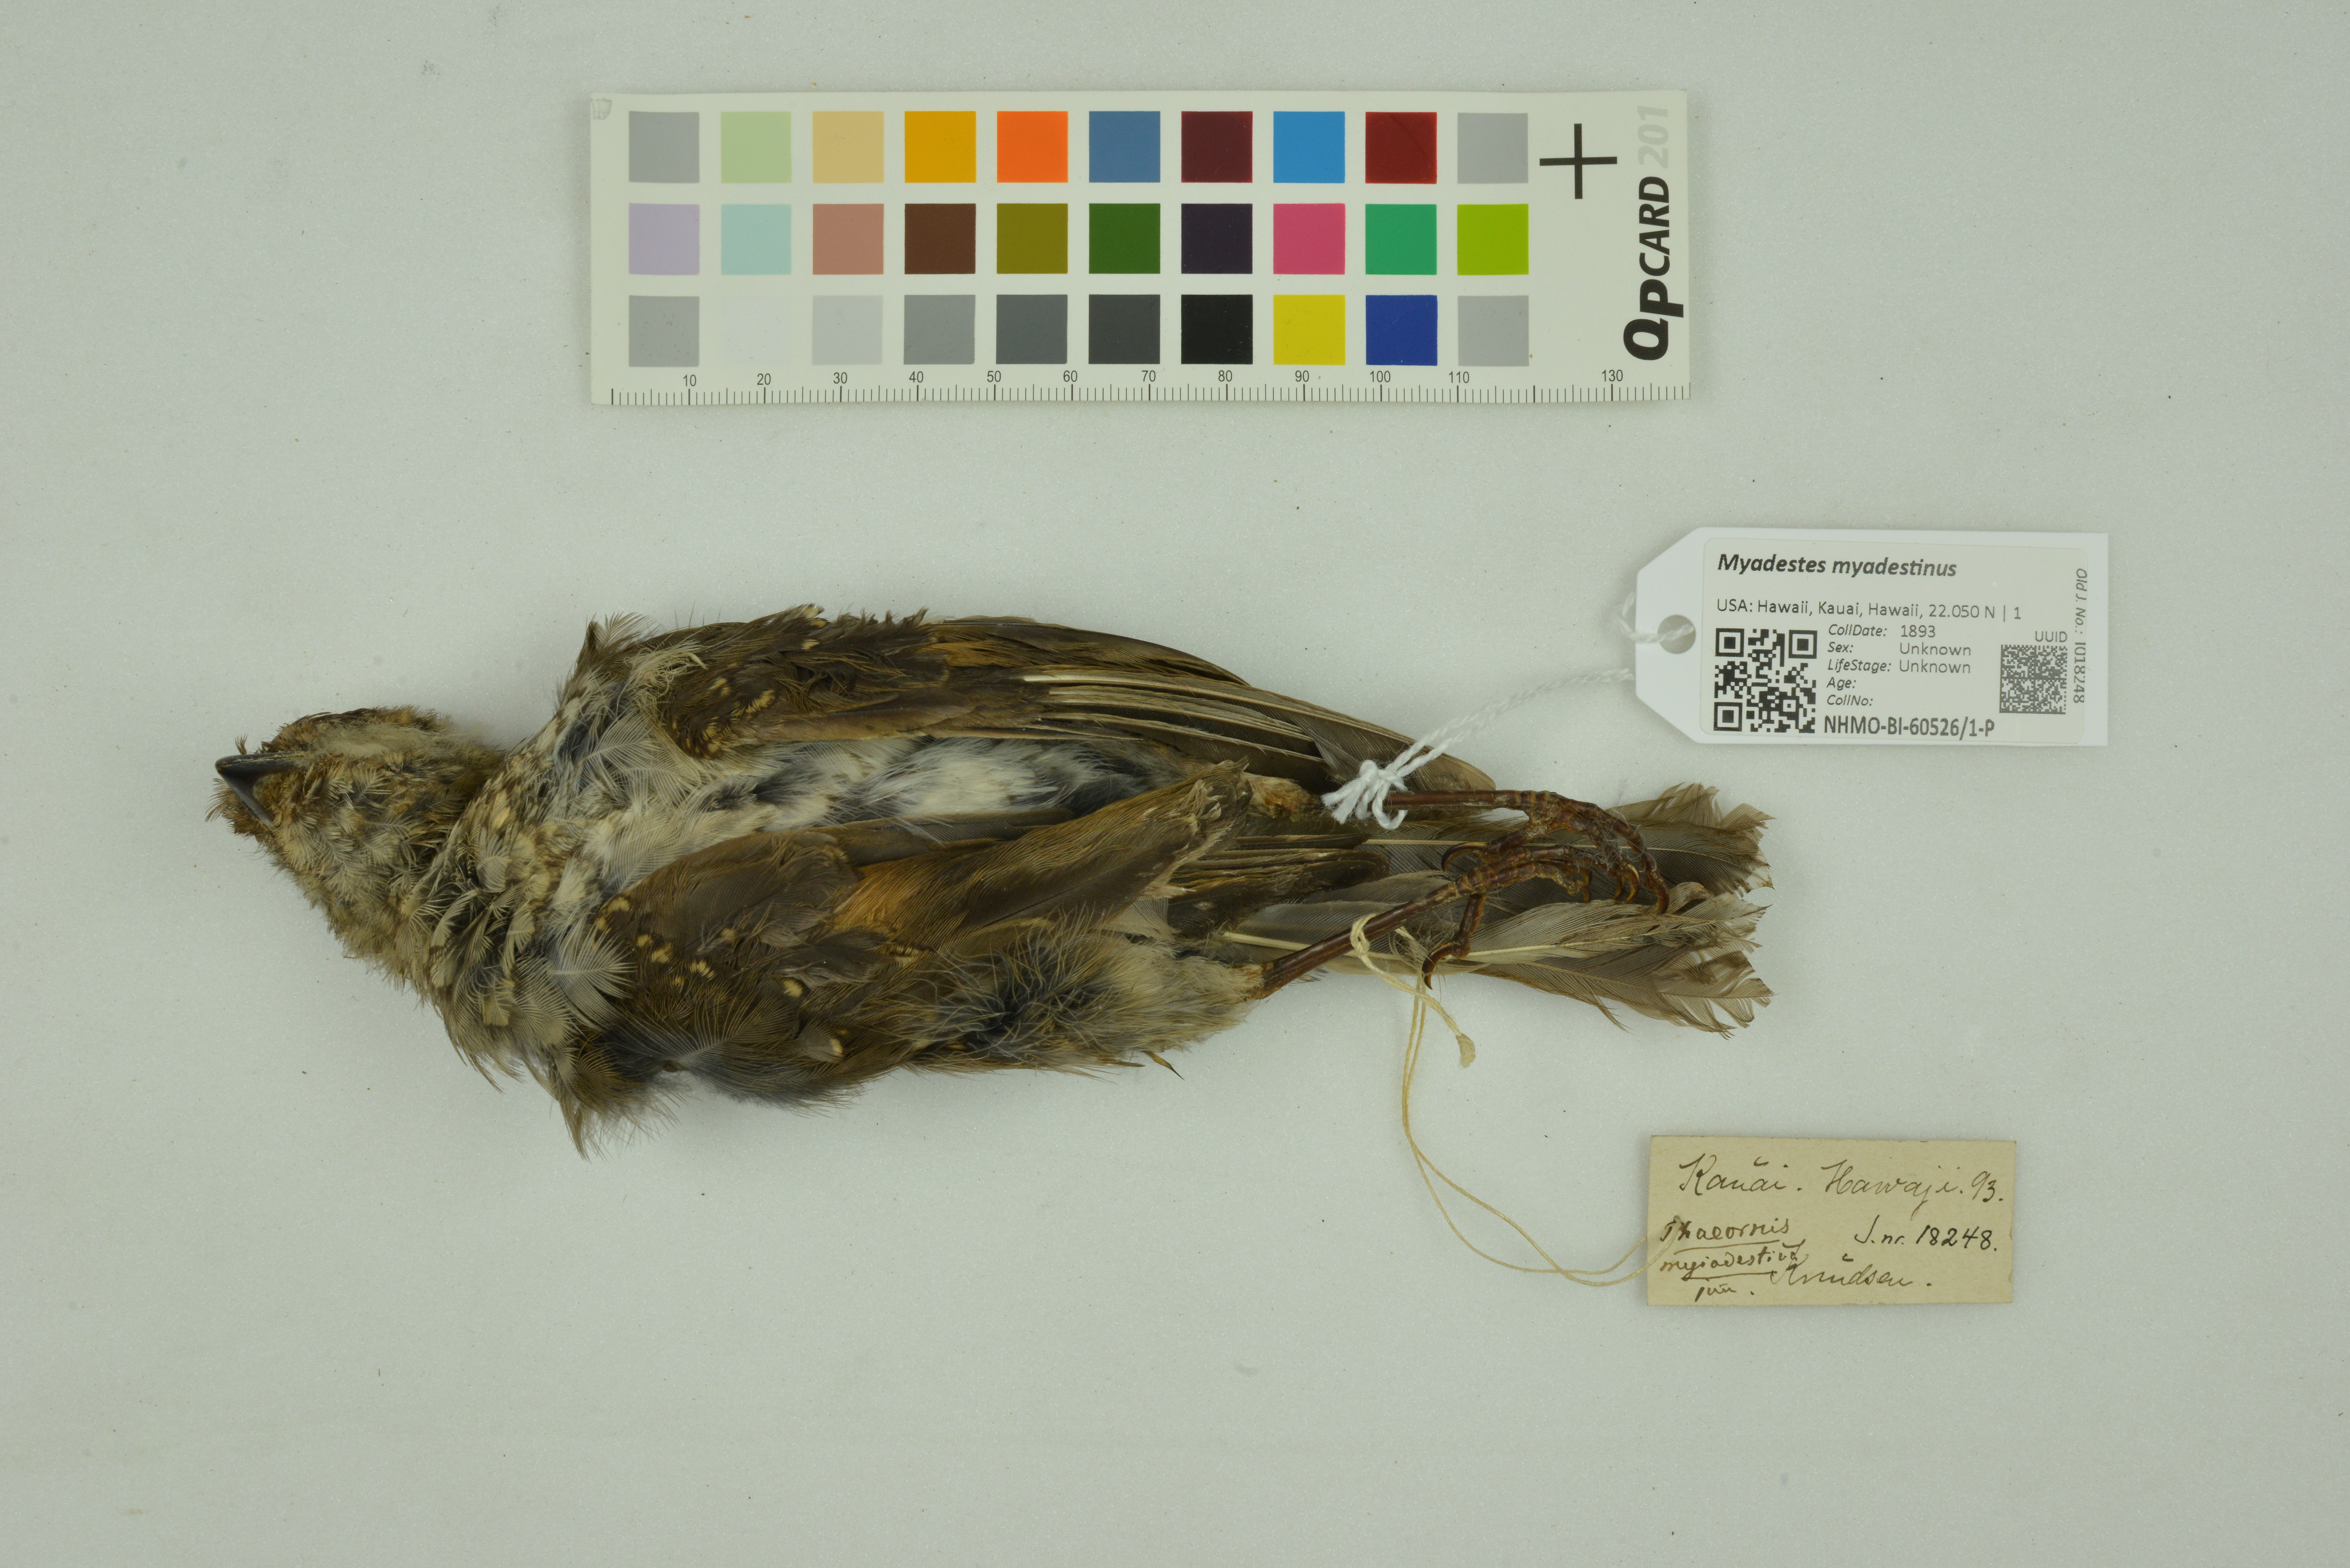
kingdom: Animalia
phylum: Chordata
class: Aves
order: Passeriformes
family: Turdidae
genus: Myadestes
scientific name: Myadestes myadestinus
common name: Kamao
